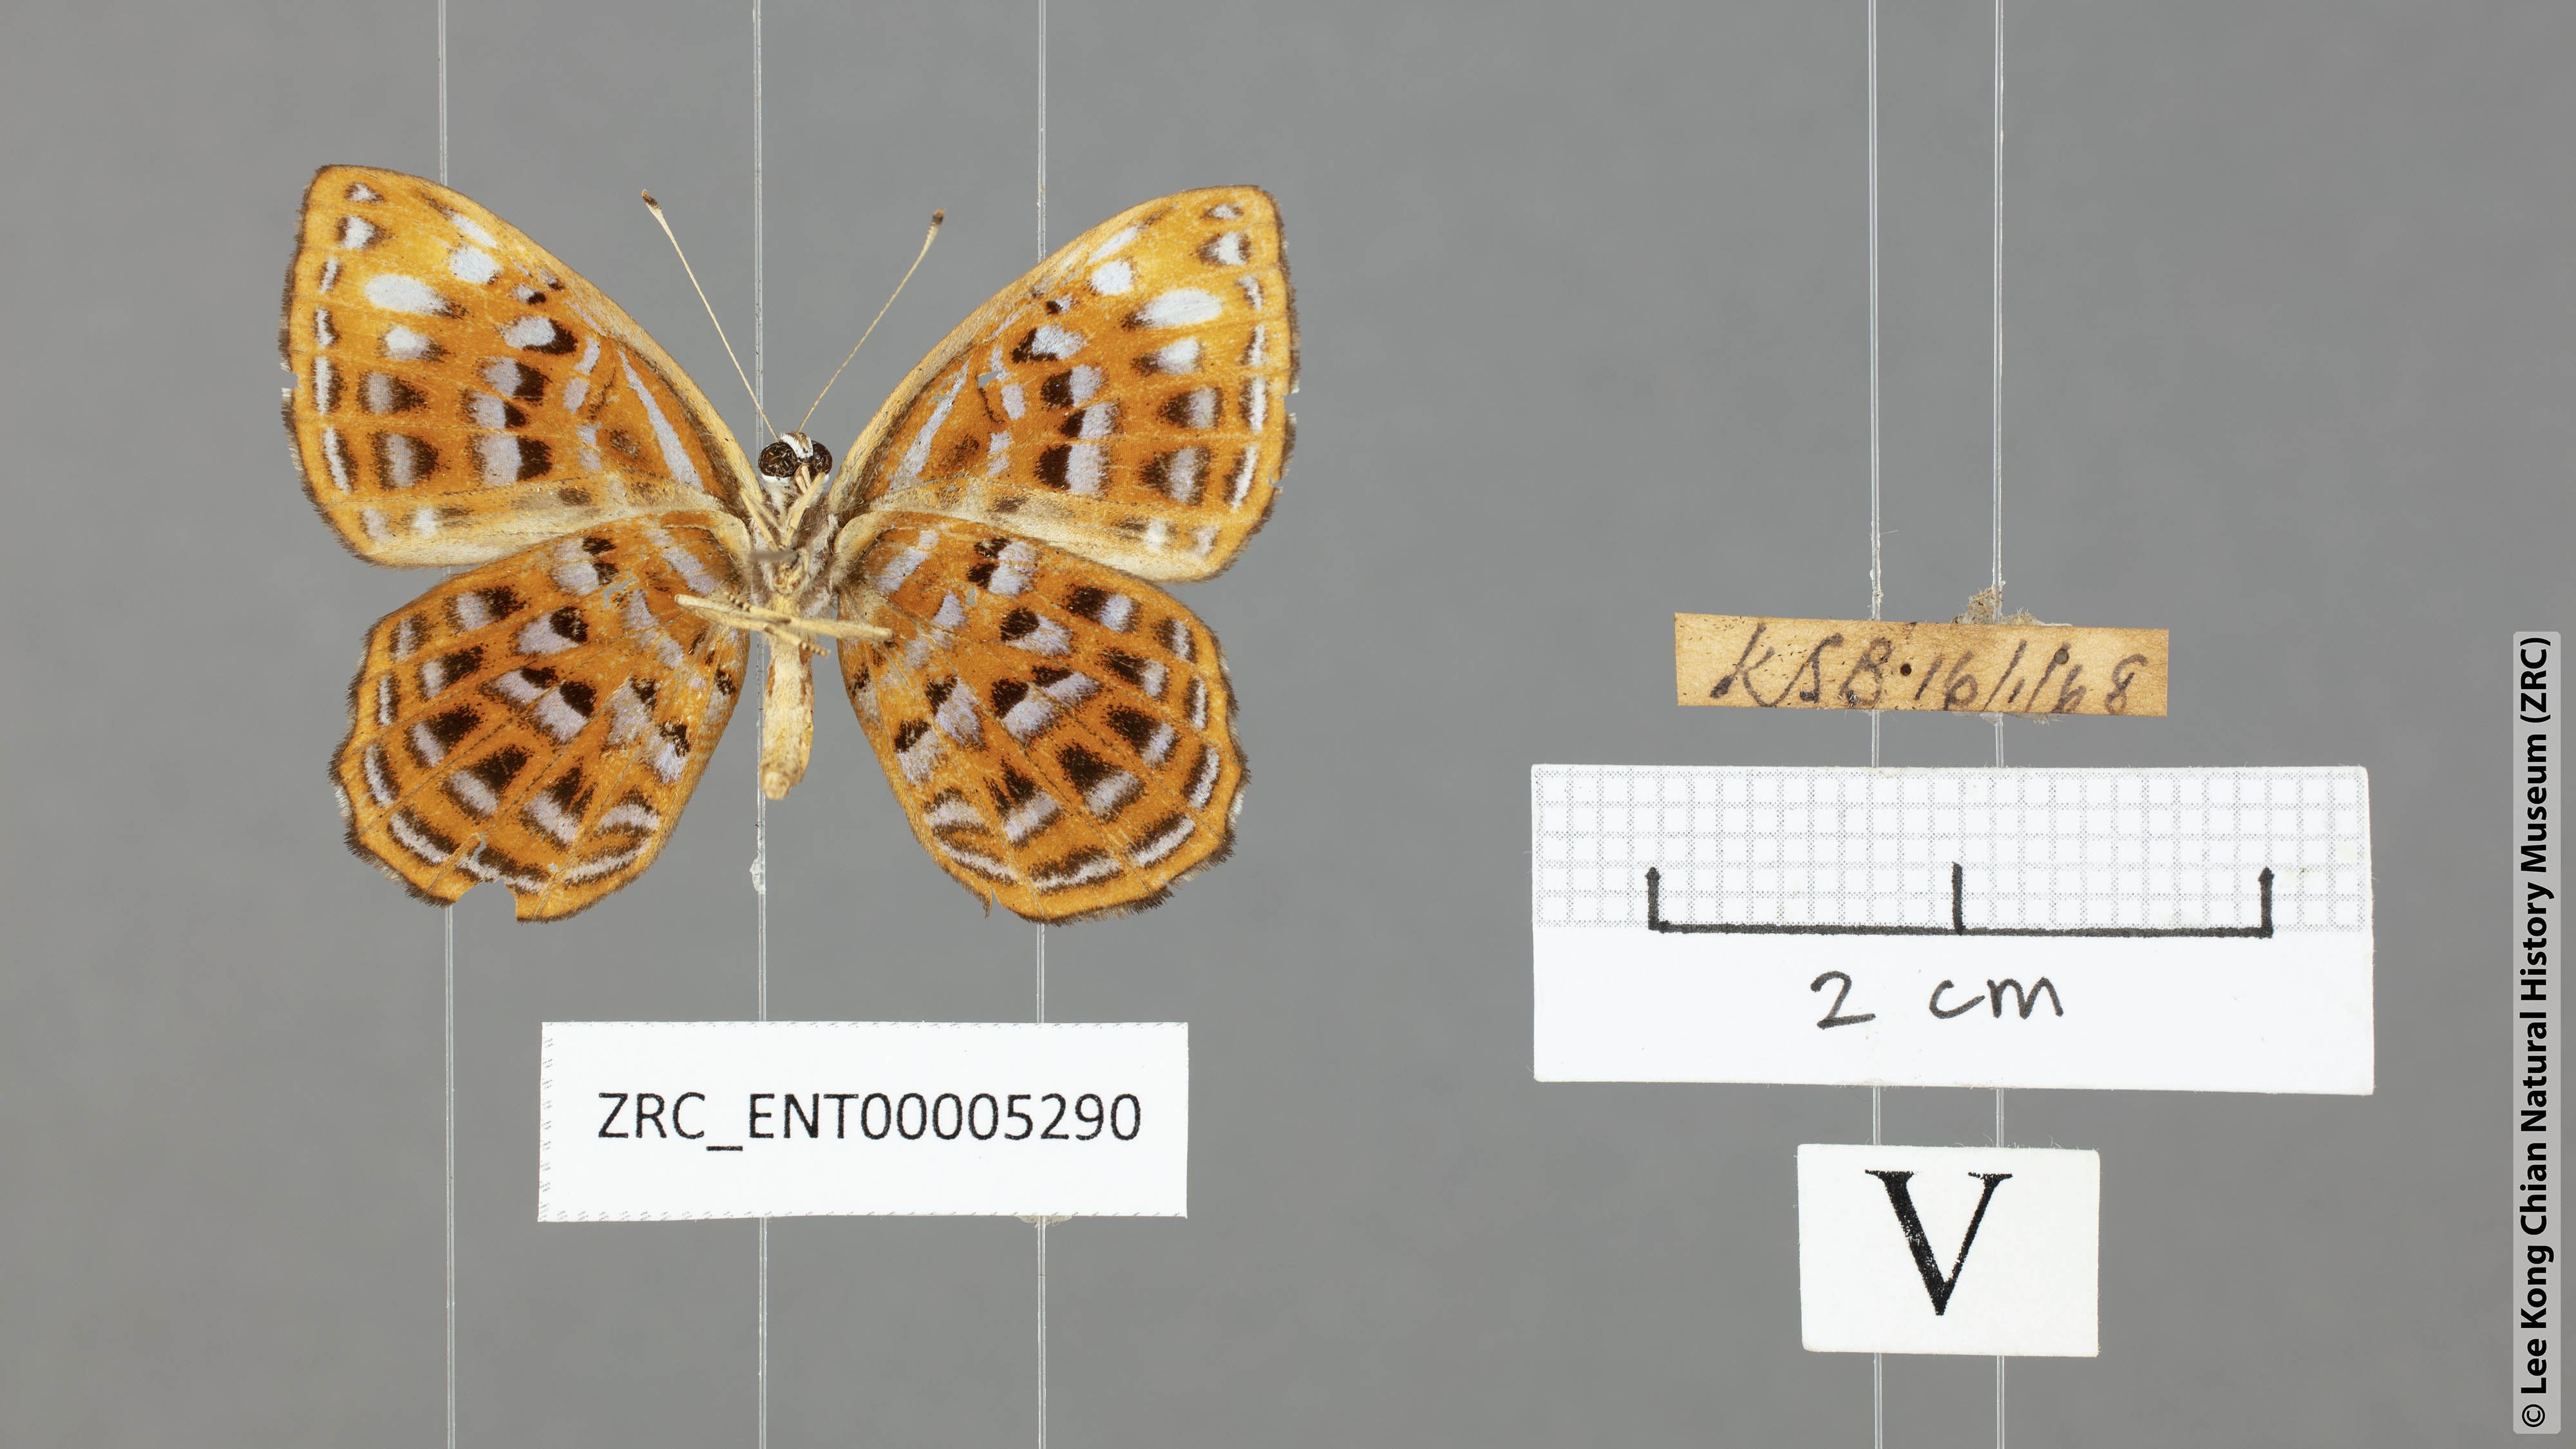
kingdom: Animalia
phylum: Arthropoda
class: Insecta
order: Lepidoptera
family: Riodinidae
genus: Laxita
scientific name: Laxita thuisto
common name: Lesser harlequin
